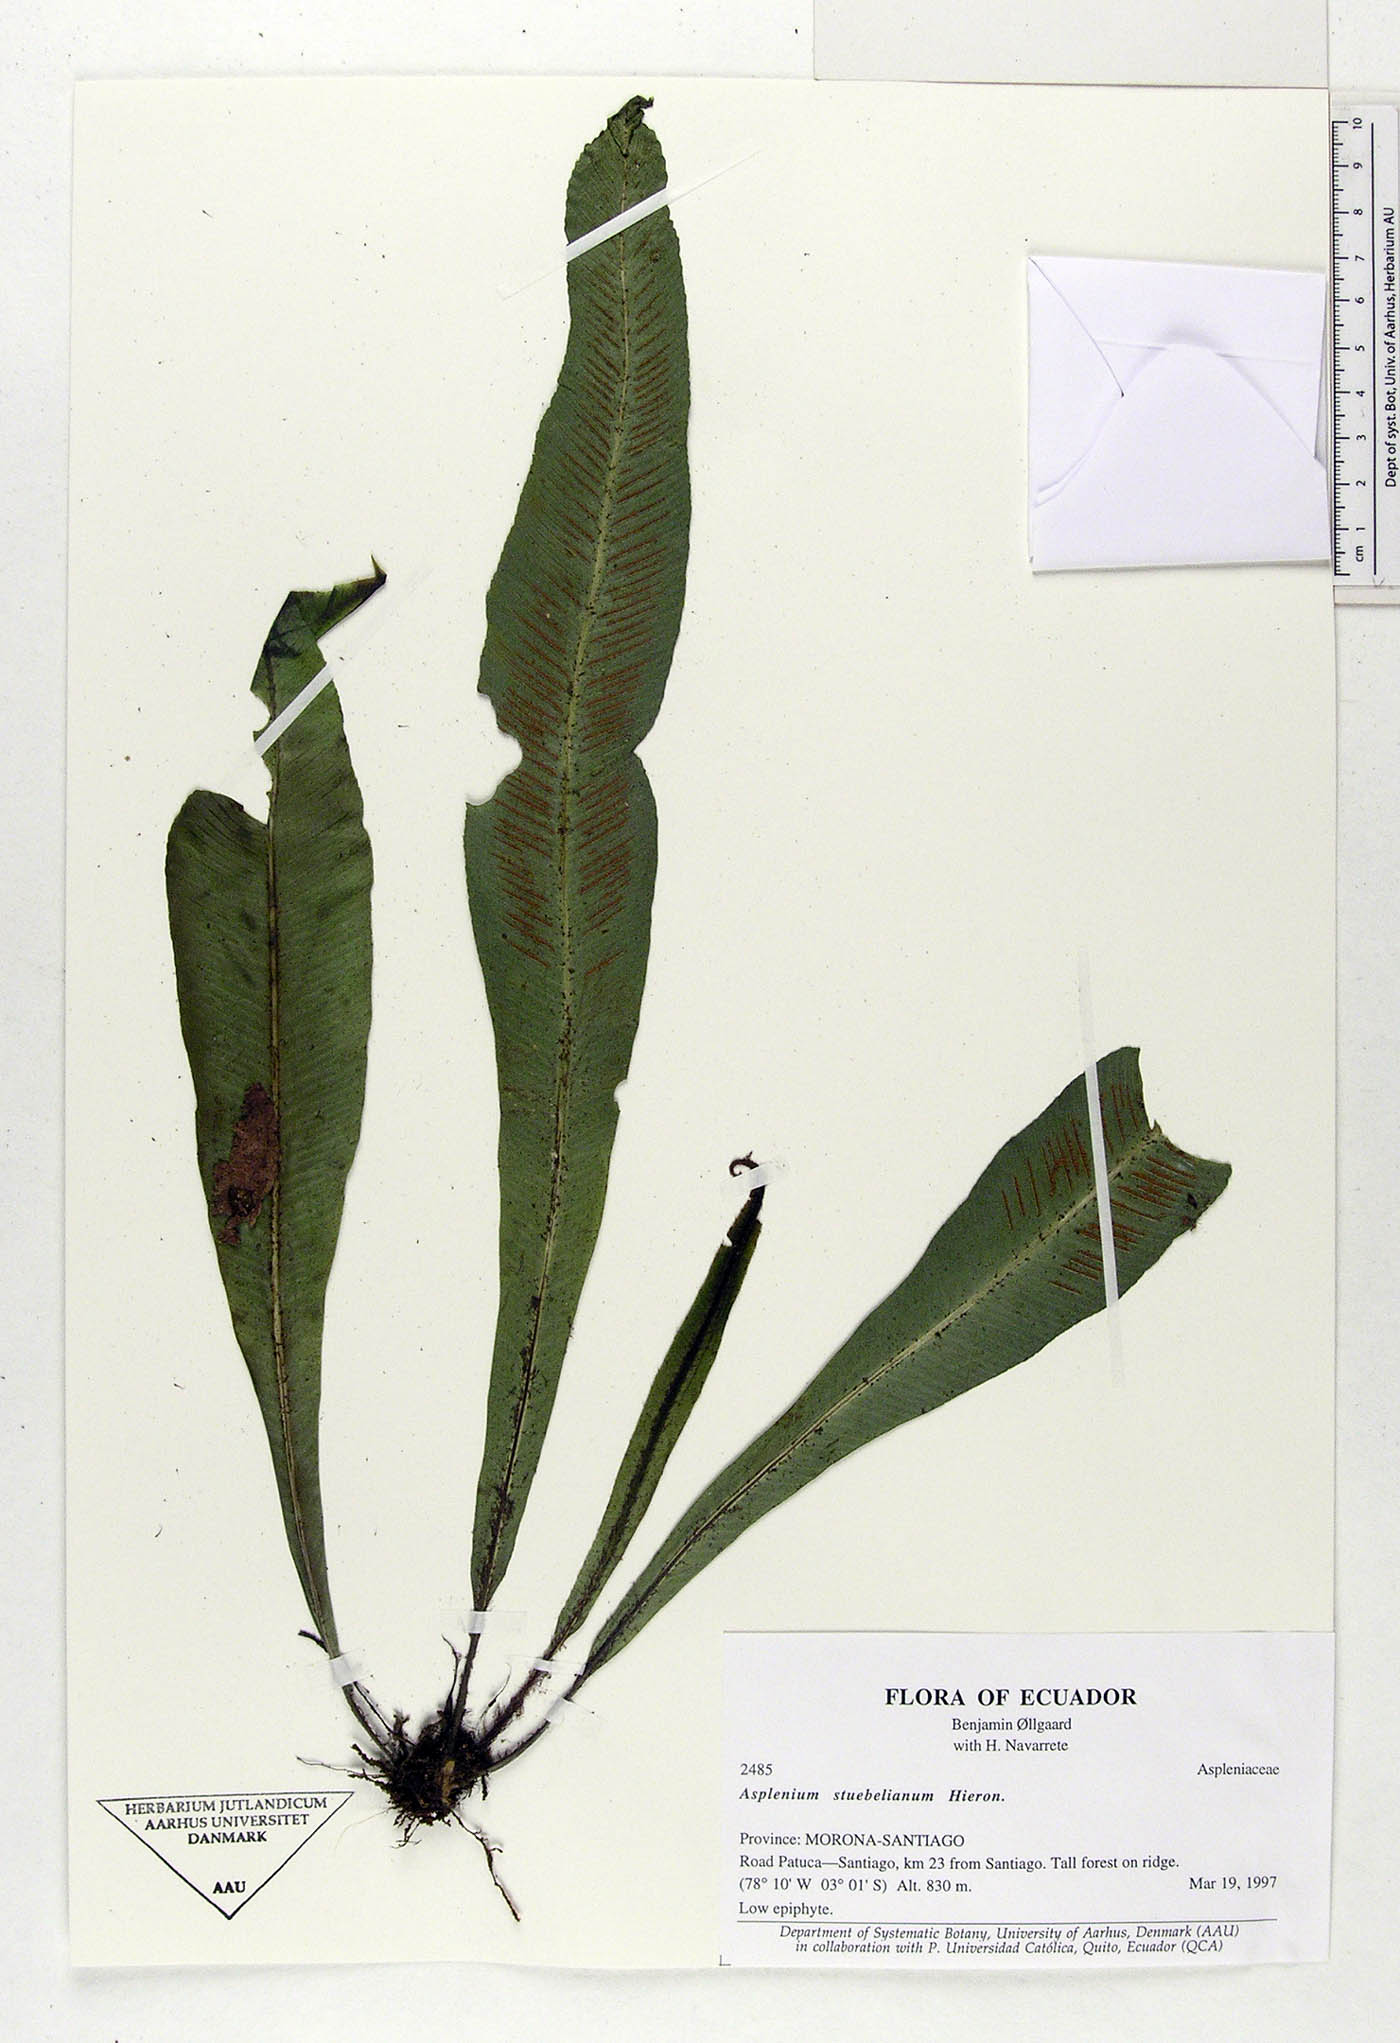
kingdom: Plantae
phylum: Tracheophyta
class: Polypodiopsida
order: Polypodiales
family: Aspleniaceae
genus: Asplenium
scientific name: Asplenium stuebelianum
